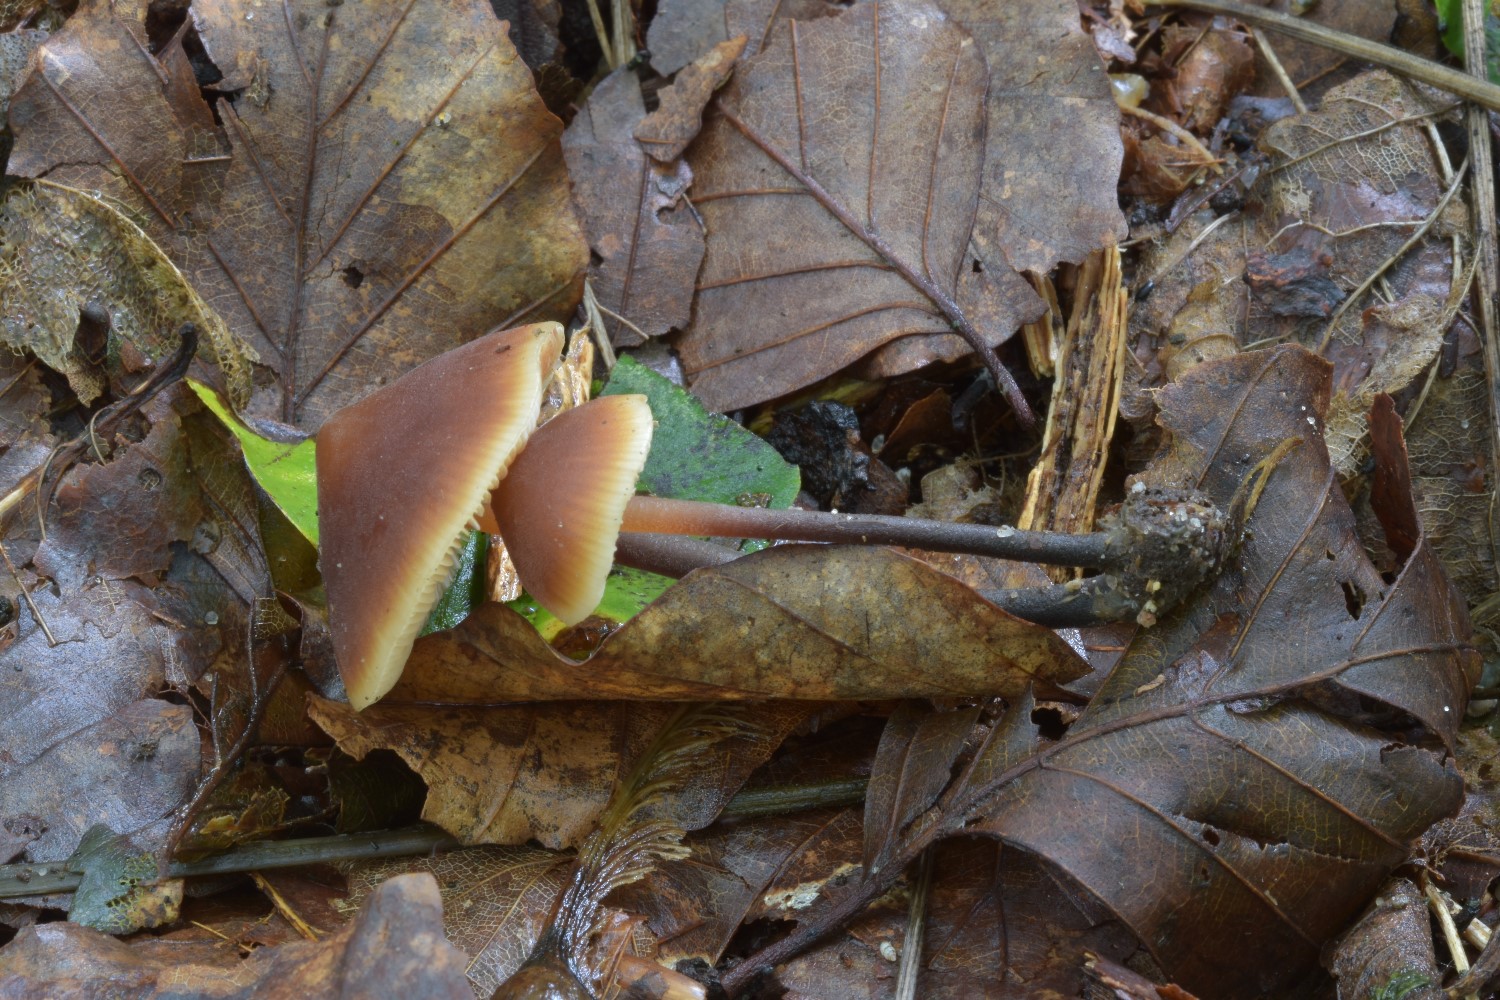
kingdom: Fungi
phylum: Basidiomycota
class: Agaricomycetes
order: Agaricales
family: Macrocystidiaceae
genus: Macrocystidia
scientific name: Macrocystidia cucumis
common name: agurkehat
